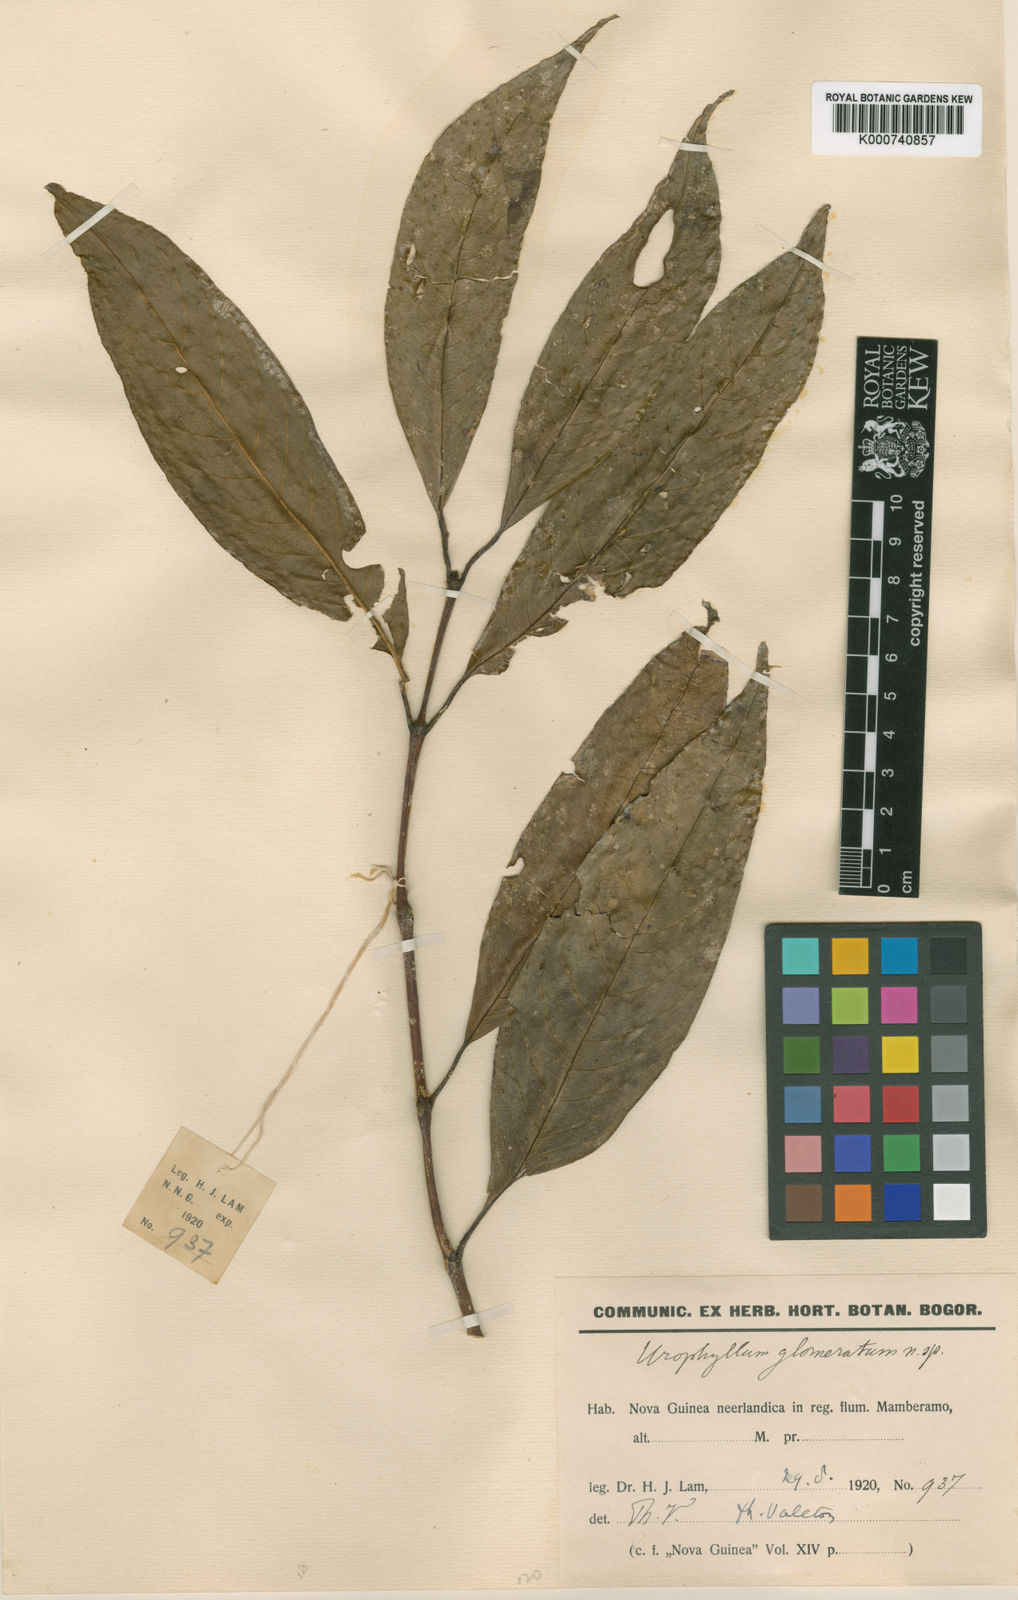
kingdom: Plantae
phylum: Tracheophyta
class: Magnoliopsida
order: Gentianales
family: Rubiaceae
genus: Urophyllum
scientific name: Urophyllum glomeratum
